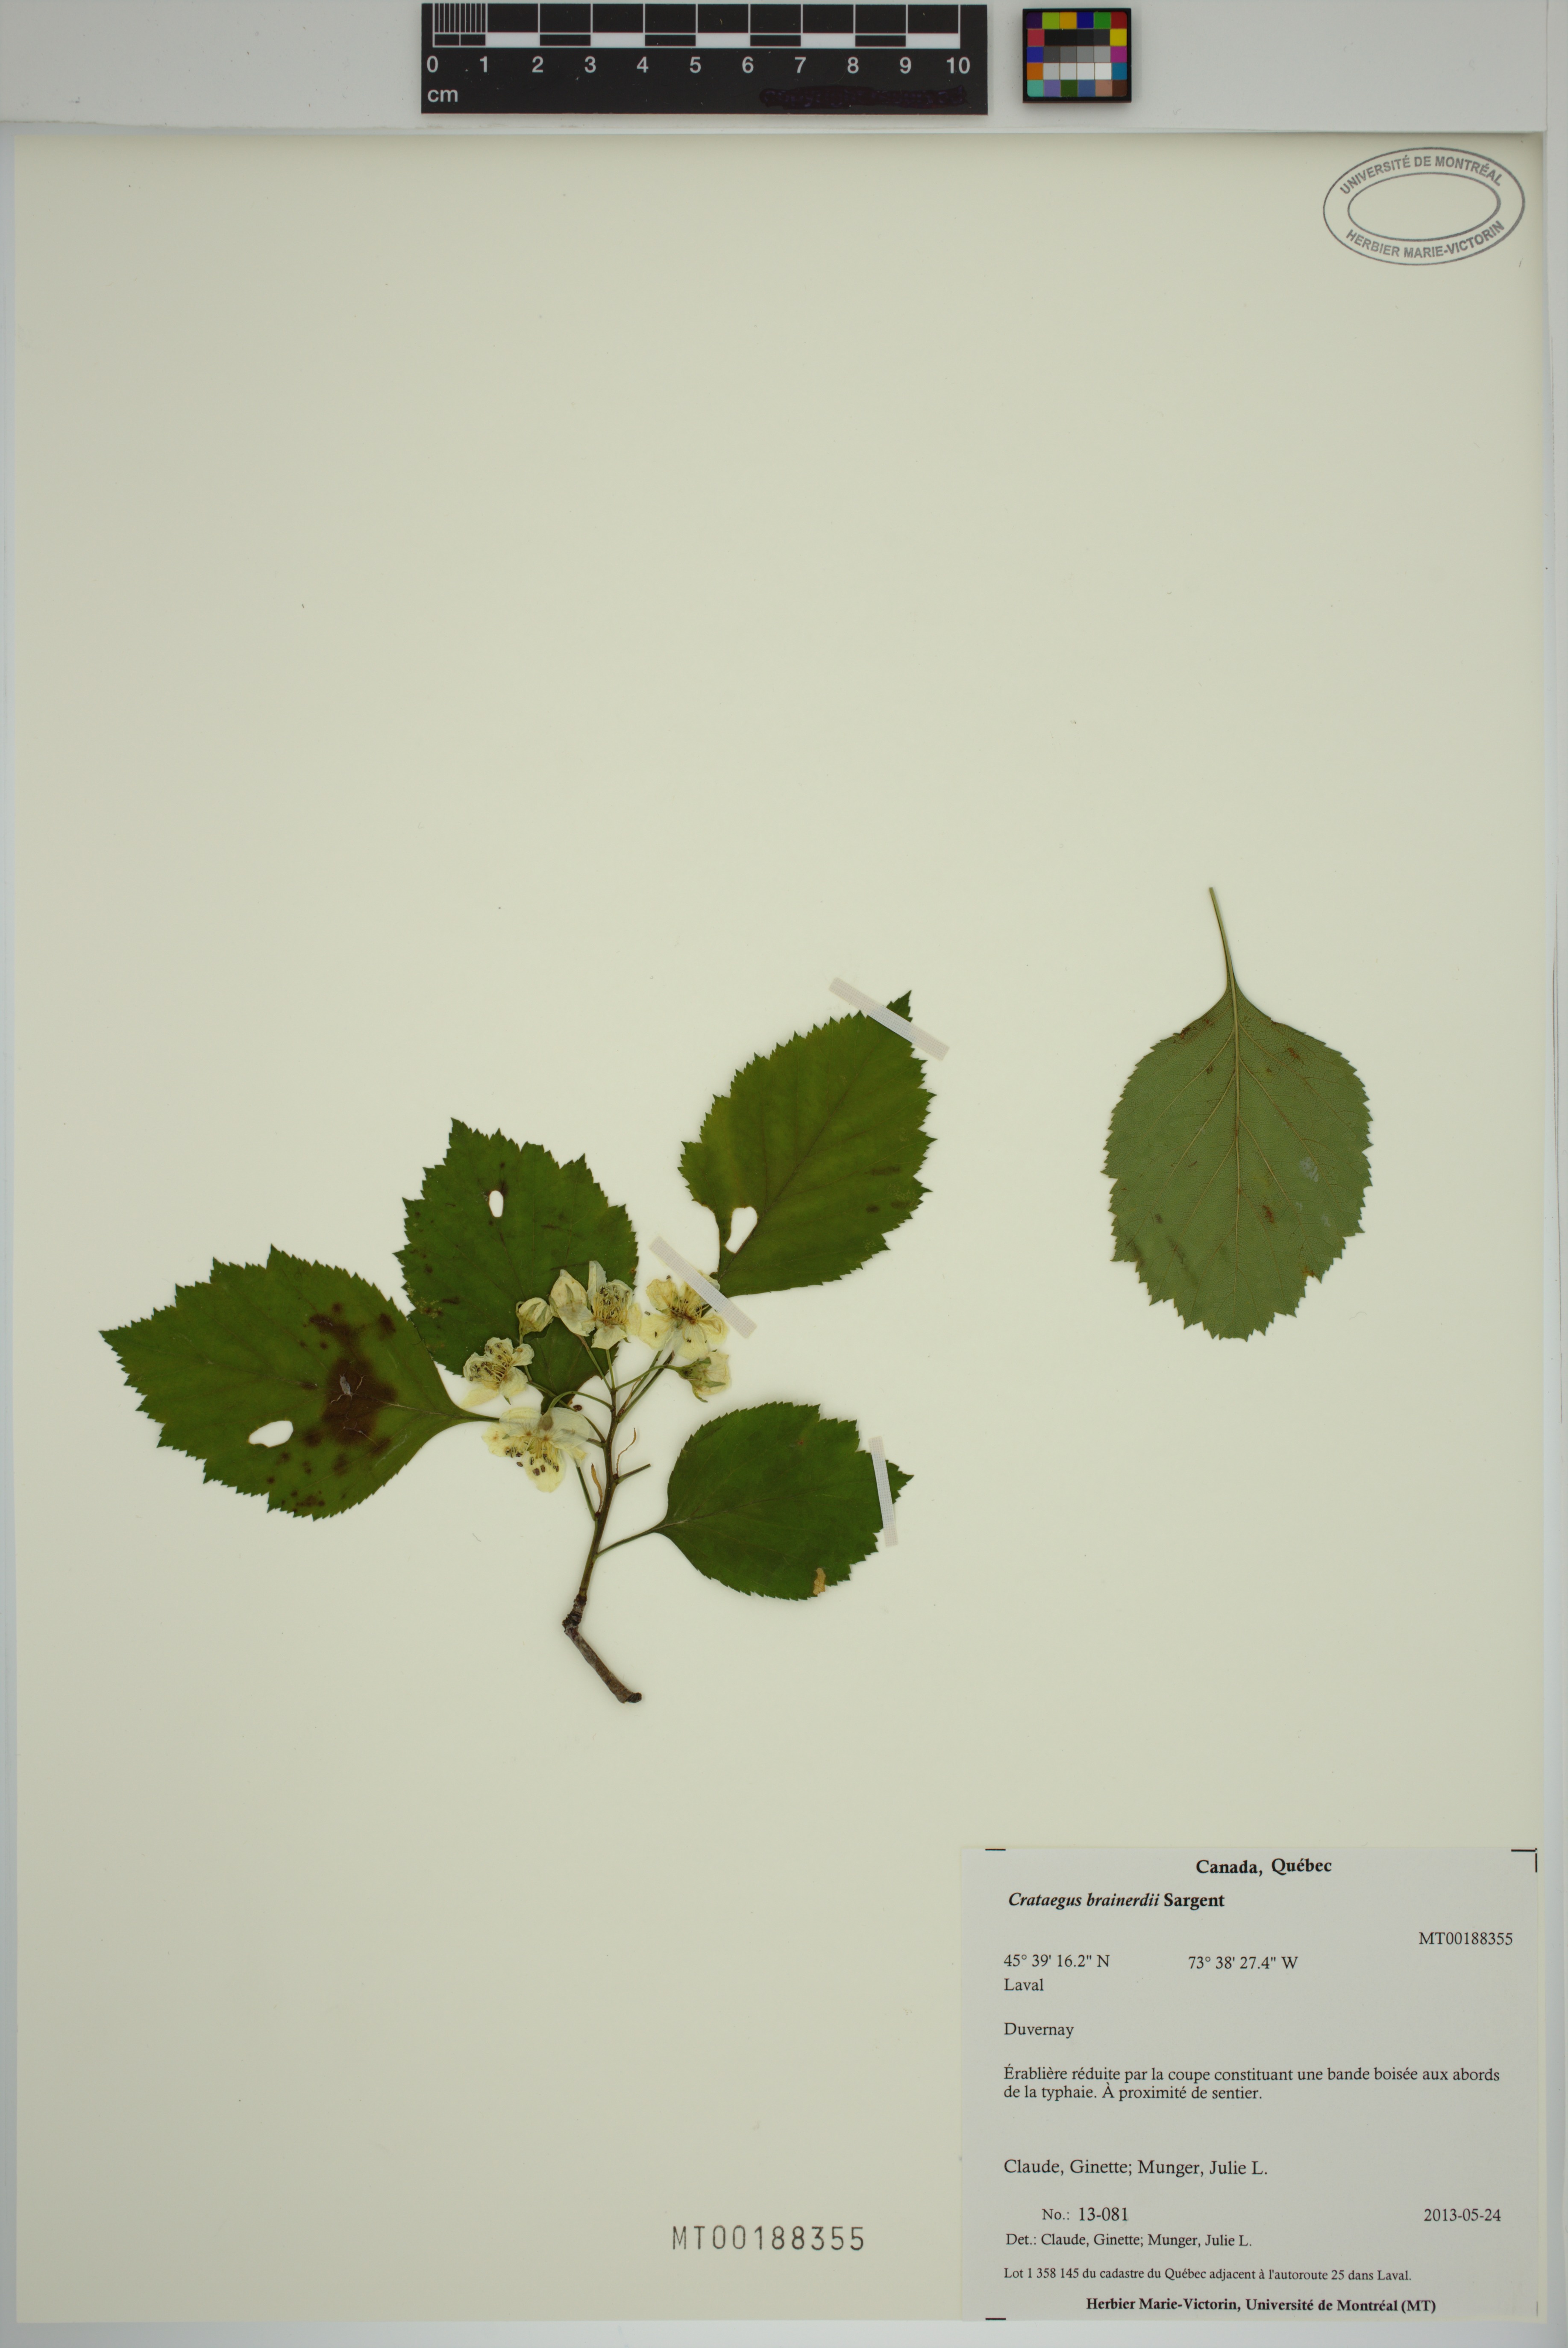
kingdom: Plantae
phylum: Tracheophyta
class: Magnoliopsida
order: Rosales
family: Rosaceae
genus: Crataegus
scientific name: Crataegus suborbiculata
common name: Caughnawaga hawthorn
